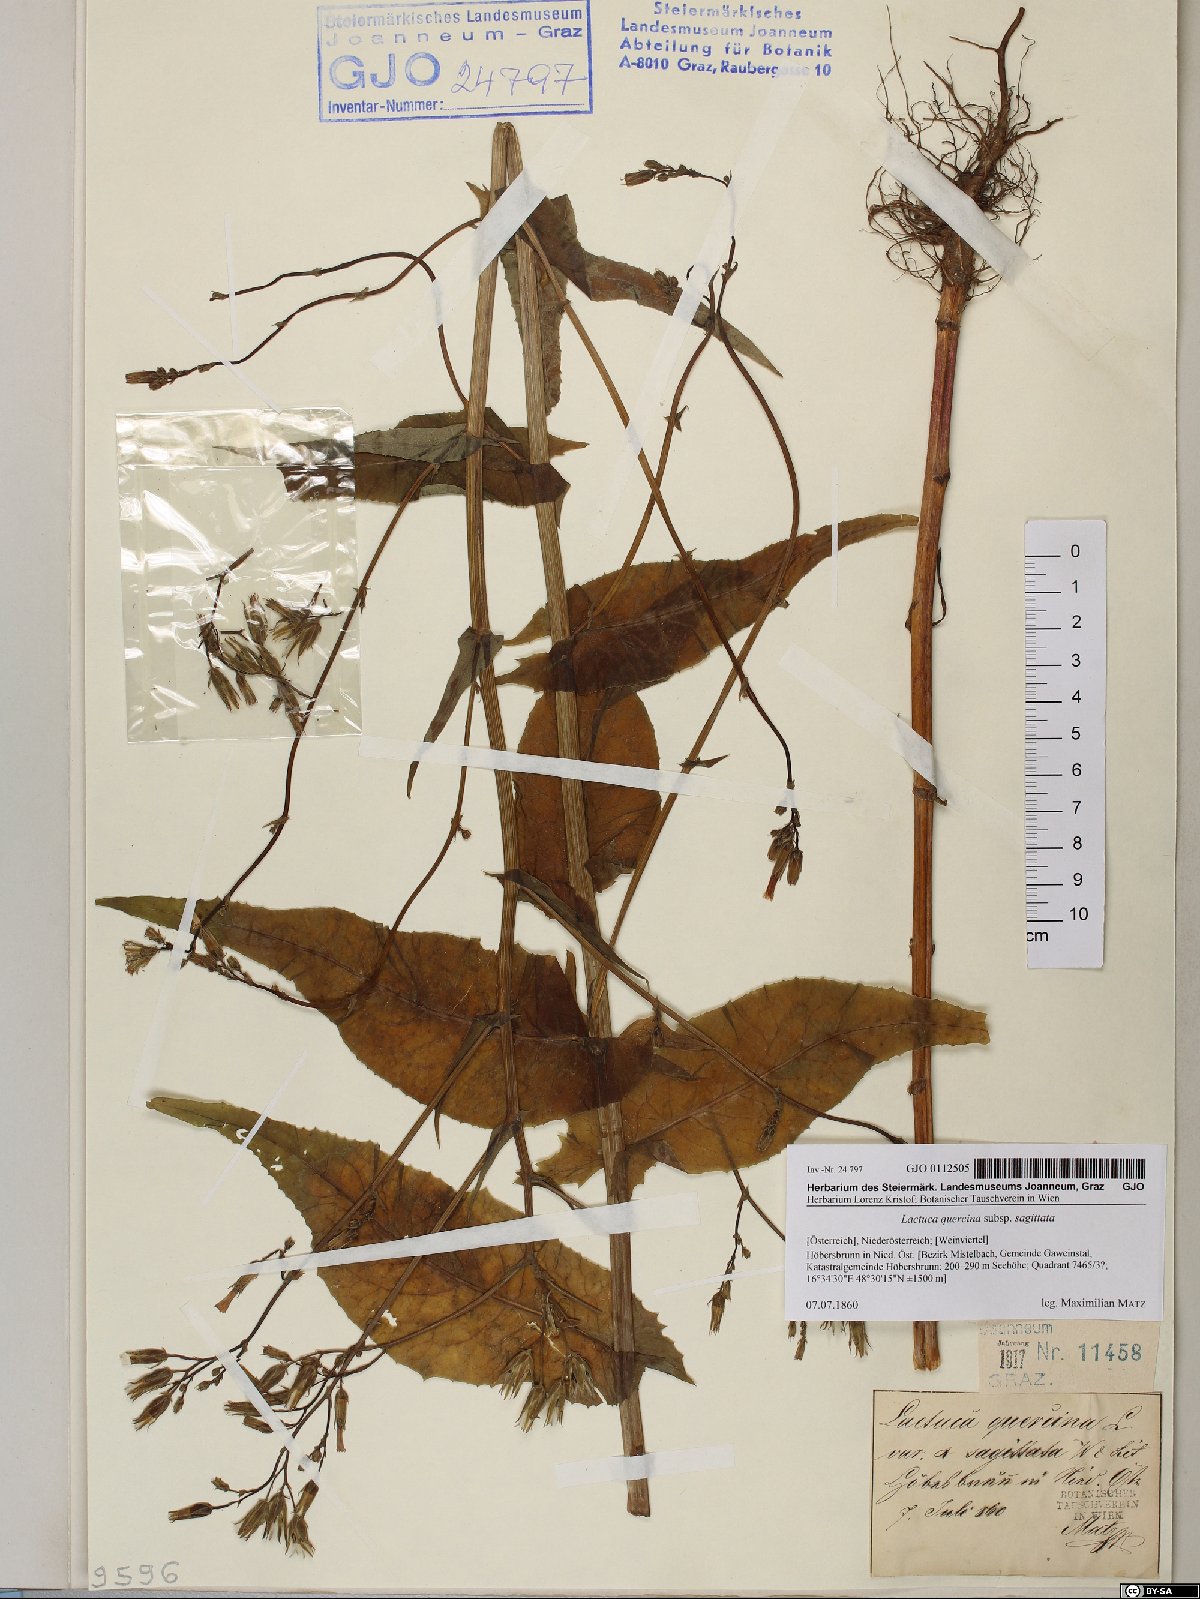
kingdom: Plantae
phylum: Tracheophyta
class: Magnoliopsida
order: Asterales
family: Asteraceae
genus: Lactuca
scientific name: Lactuca quercina
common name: Wild lettuce
